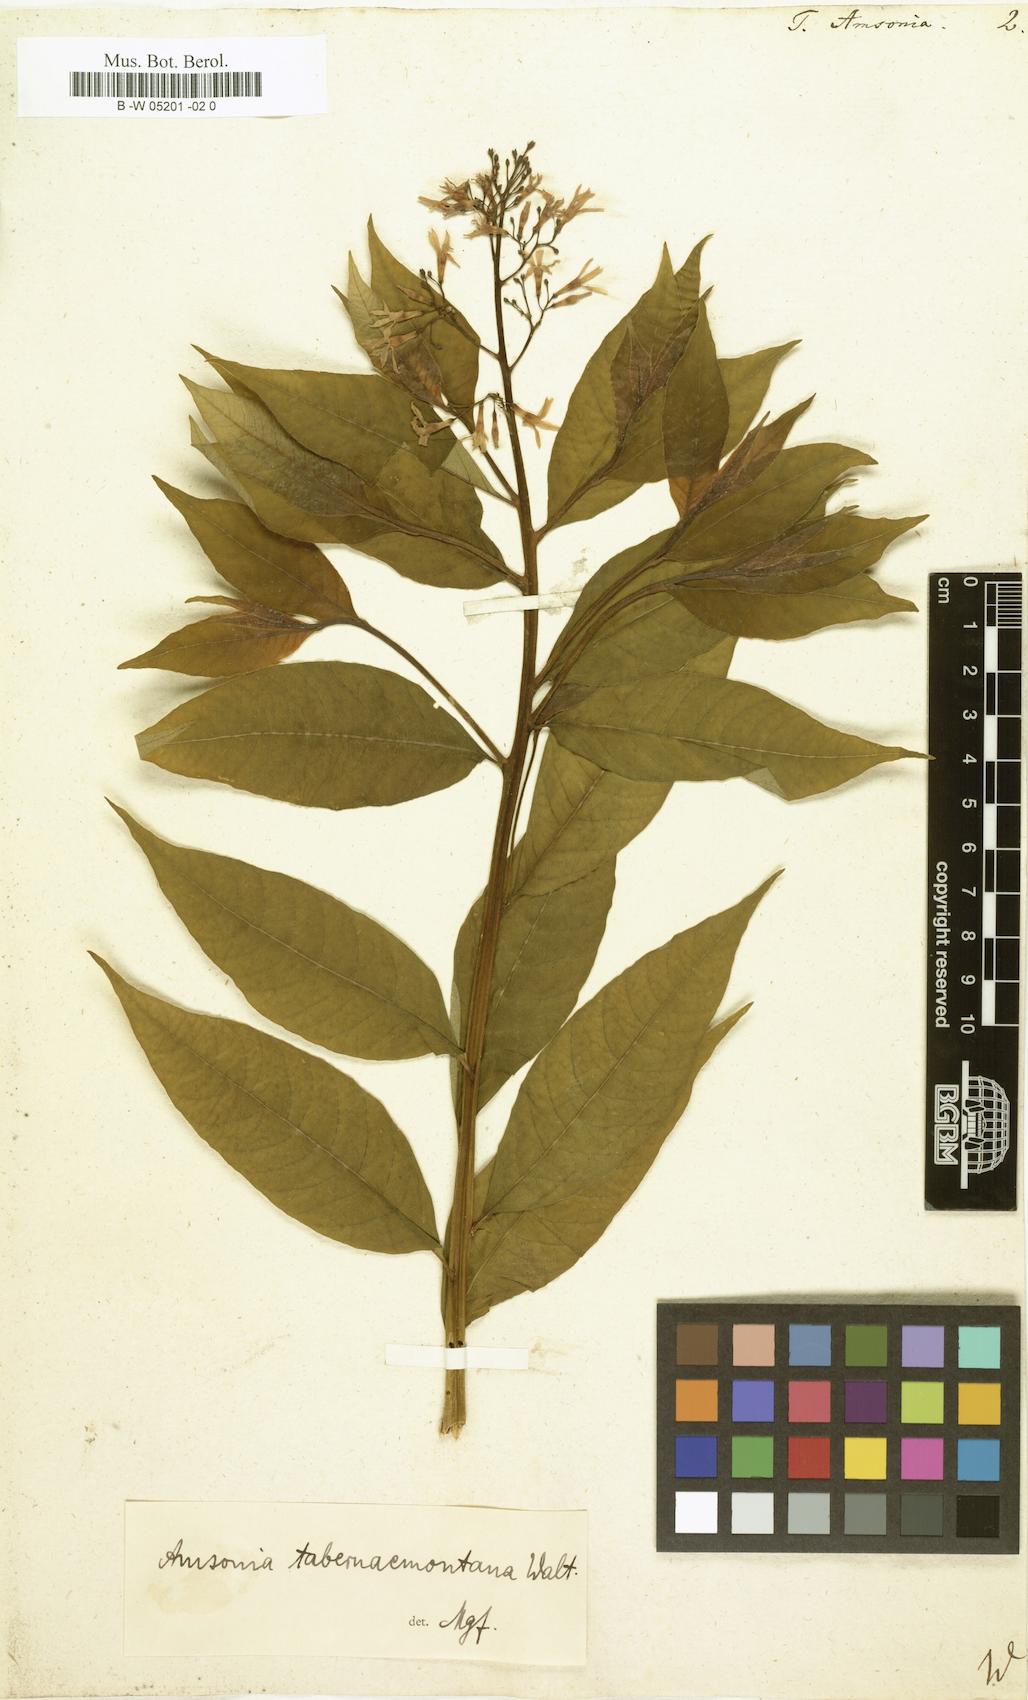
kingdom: Plantae
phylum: Tracheophyta
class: Magnoliopsida
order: Gentianales
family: Apocynaceae
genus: Amsonia
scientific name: Amsonia tabernaemontana
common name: Texas-star
